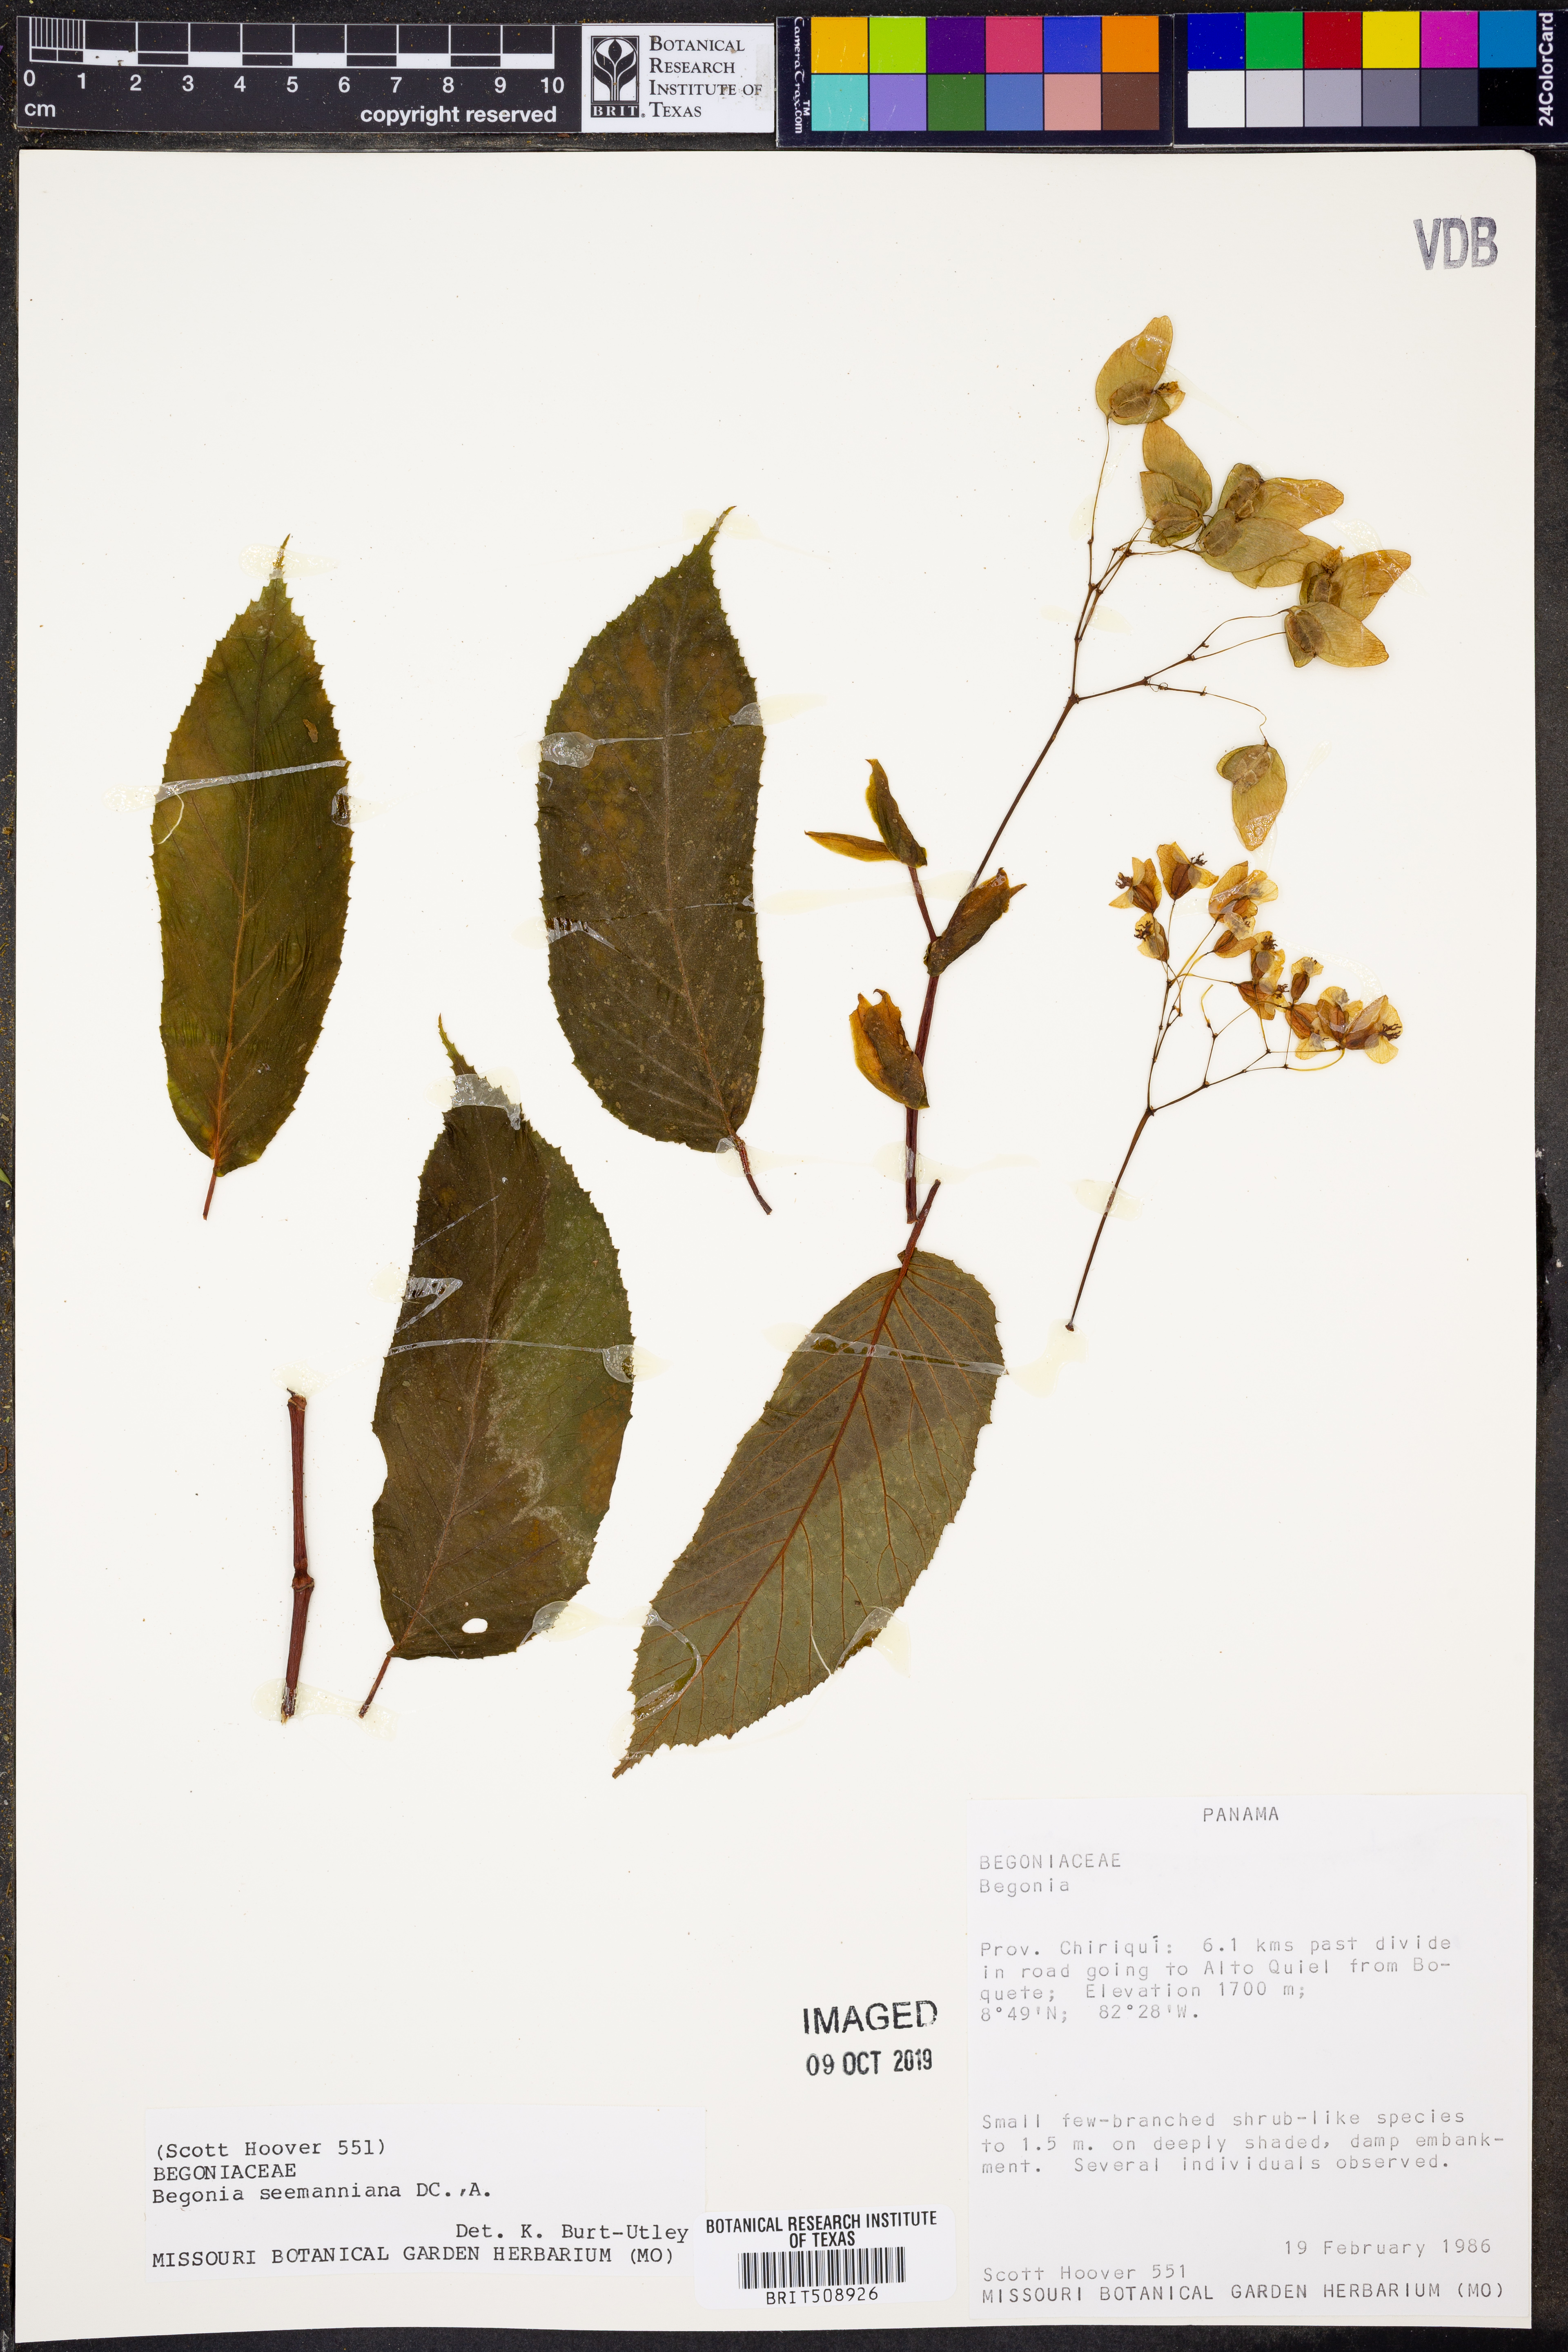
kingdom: Plantae
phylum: Tracheophyta
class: Magnoliopsida
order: Cucurbitales
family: Begoniaceae
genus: Begonia
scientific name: Begonia seemanniana
